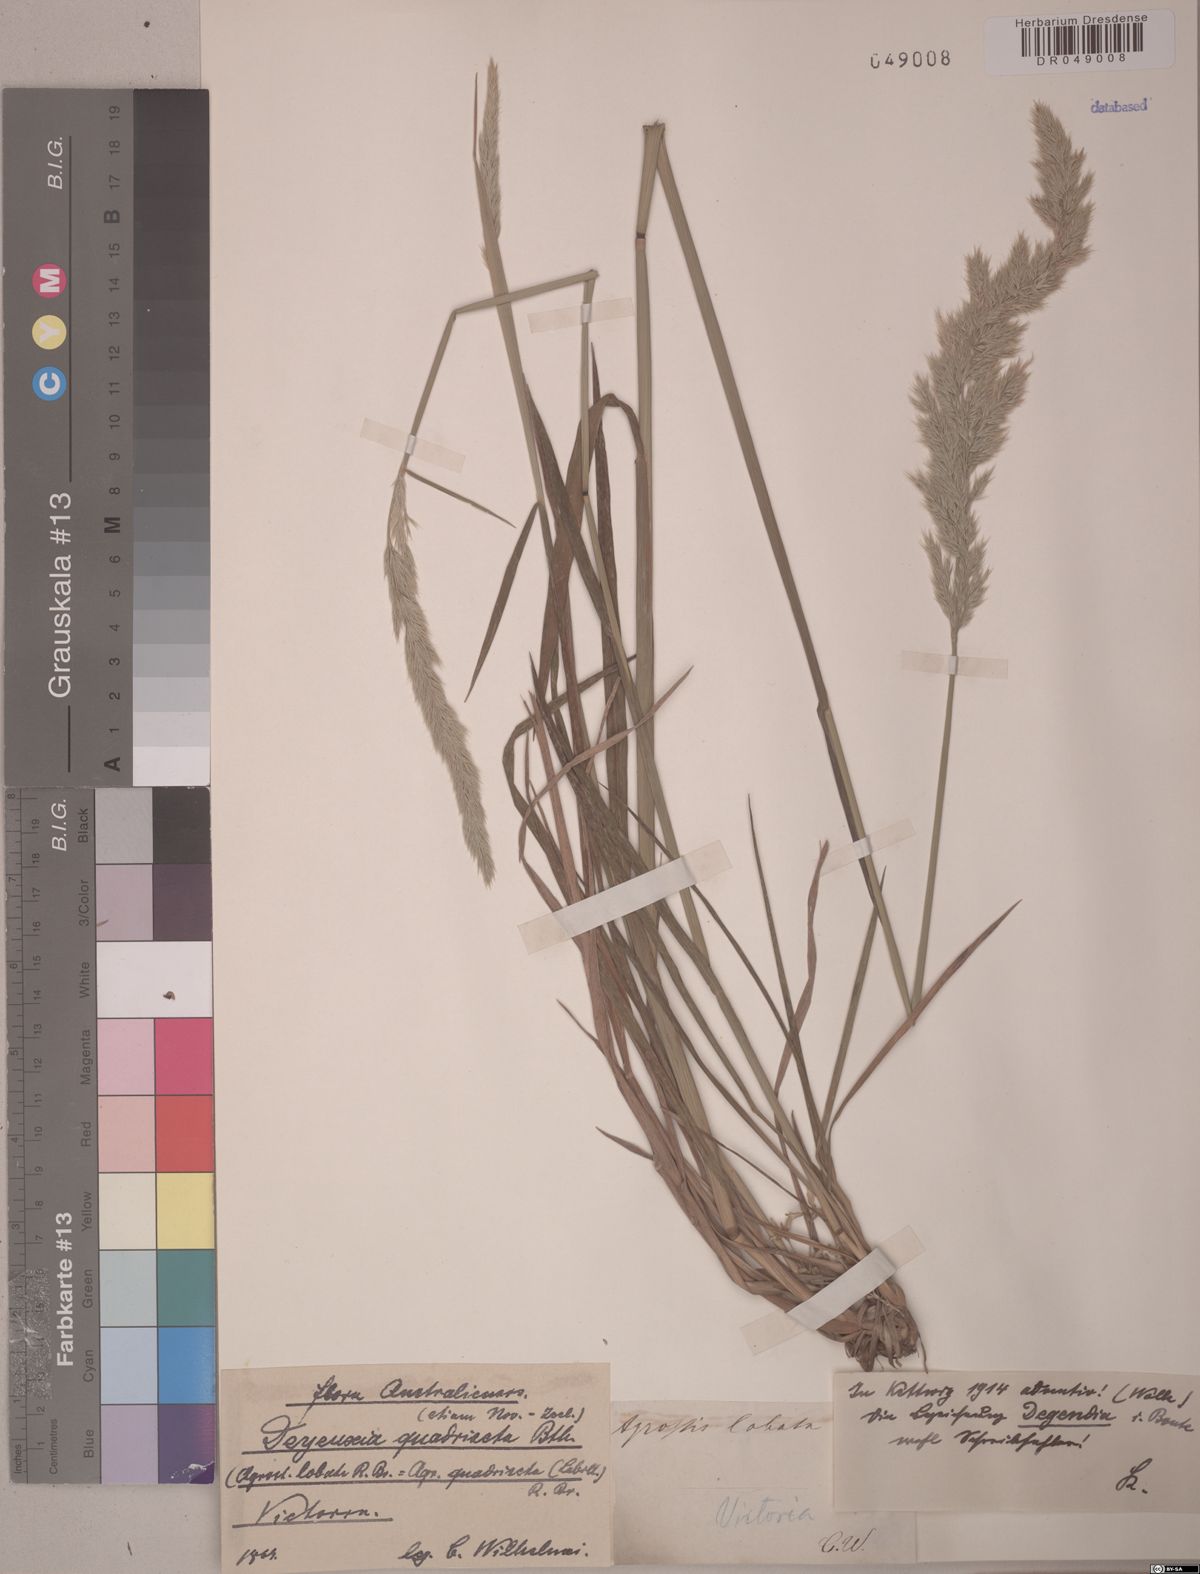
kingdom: Plantae
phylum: Tracheophyta
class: Liliopsida
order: Poales
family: Poaceae
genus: Calamagrostis
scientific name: Calamagrostis quadriseta
